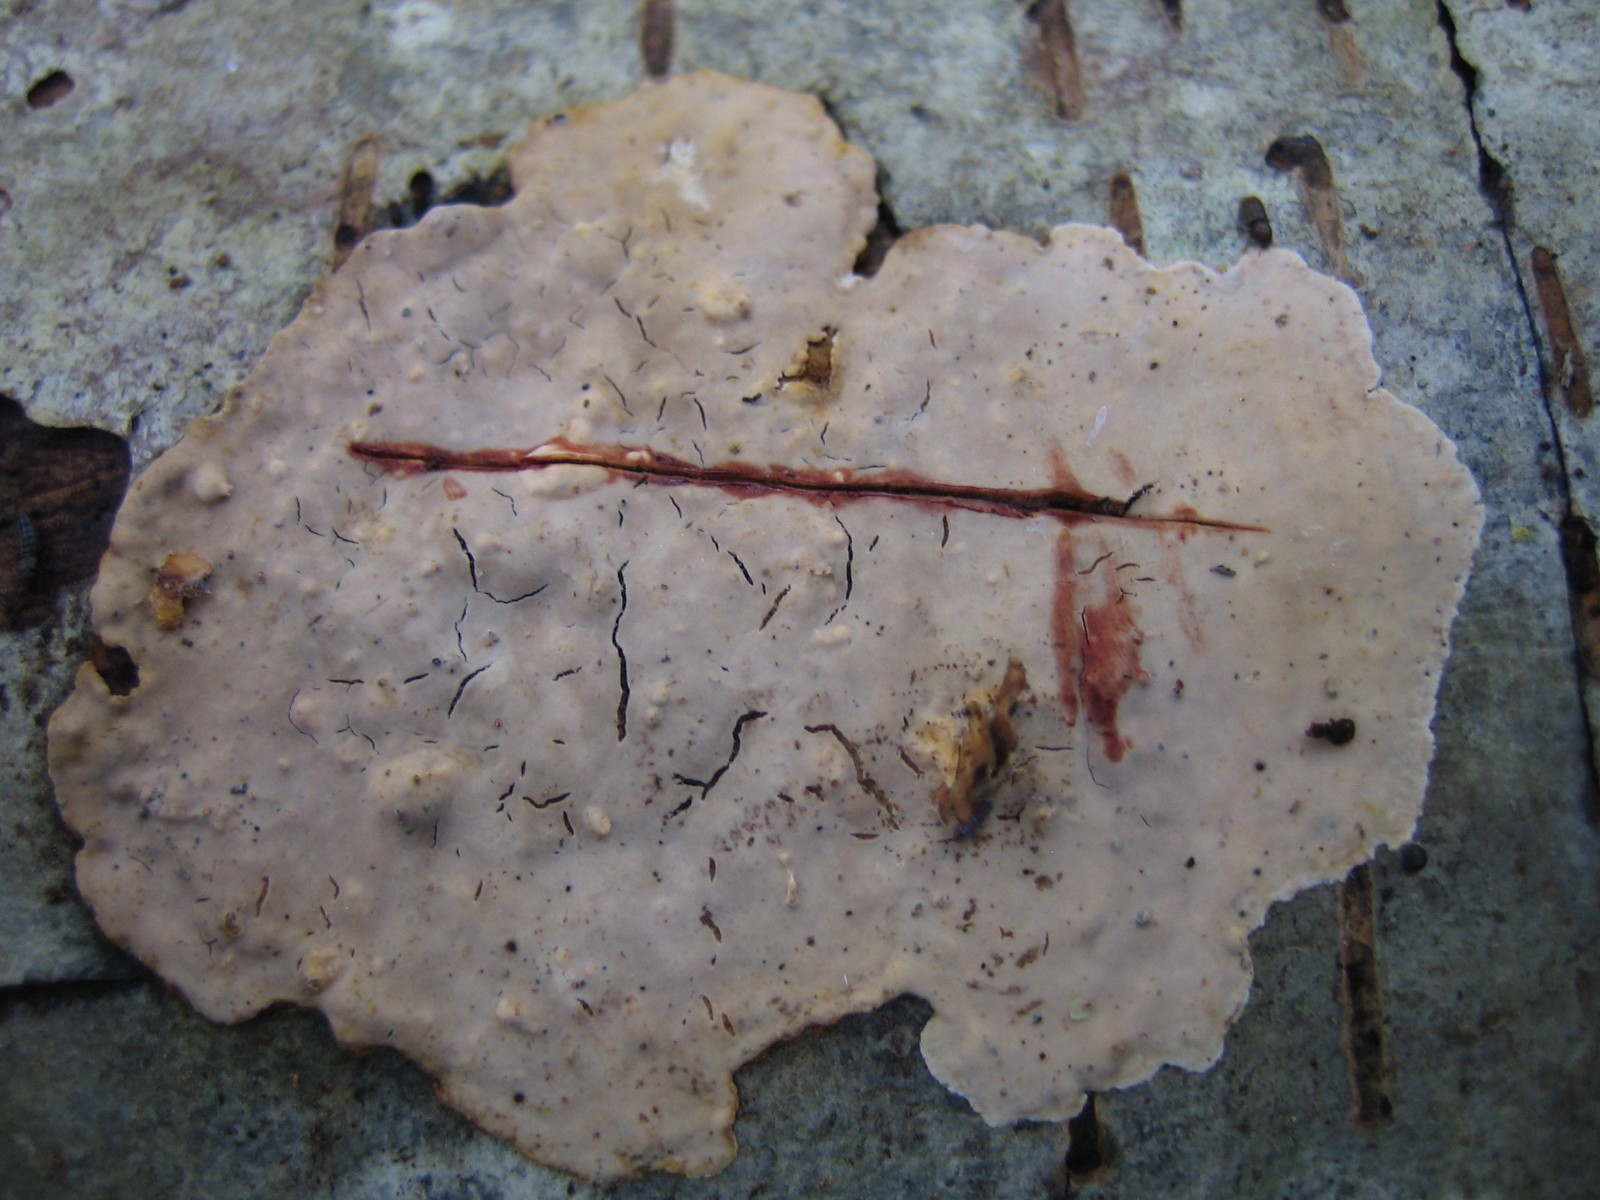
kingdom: Fungi
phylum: Basidiomycota
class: Agaricomycetes
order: Russulales
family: Stereaceae
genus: Stereum
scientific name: Stereum rugosum
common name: rynket lædersvamp
